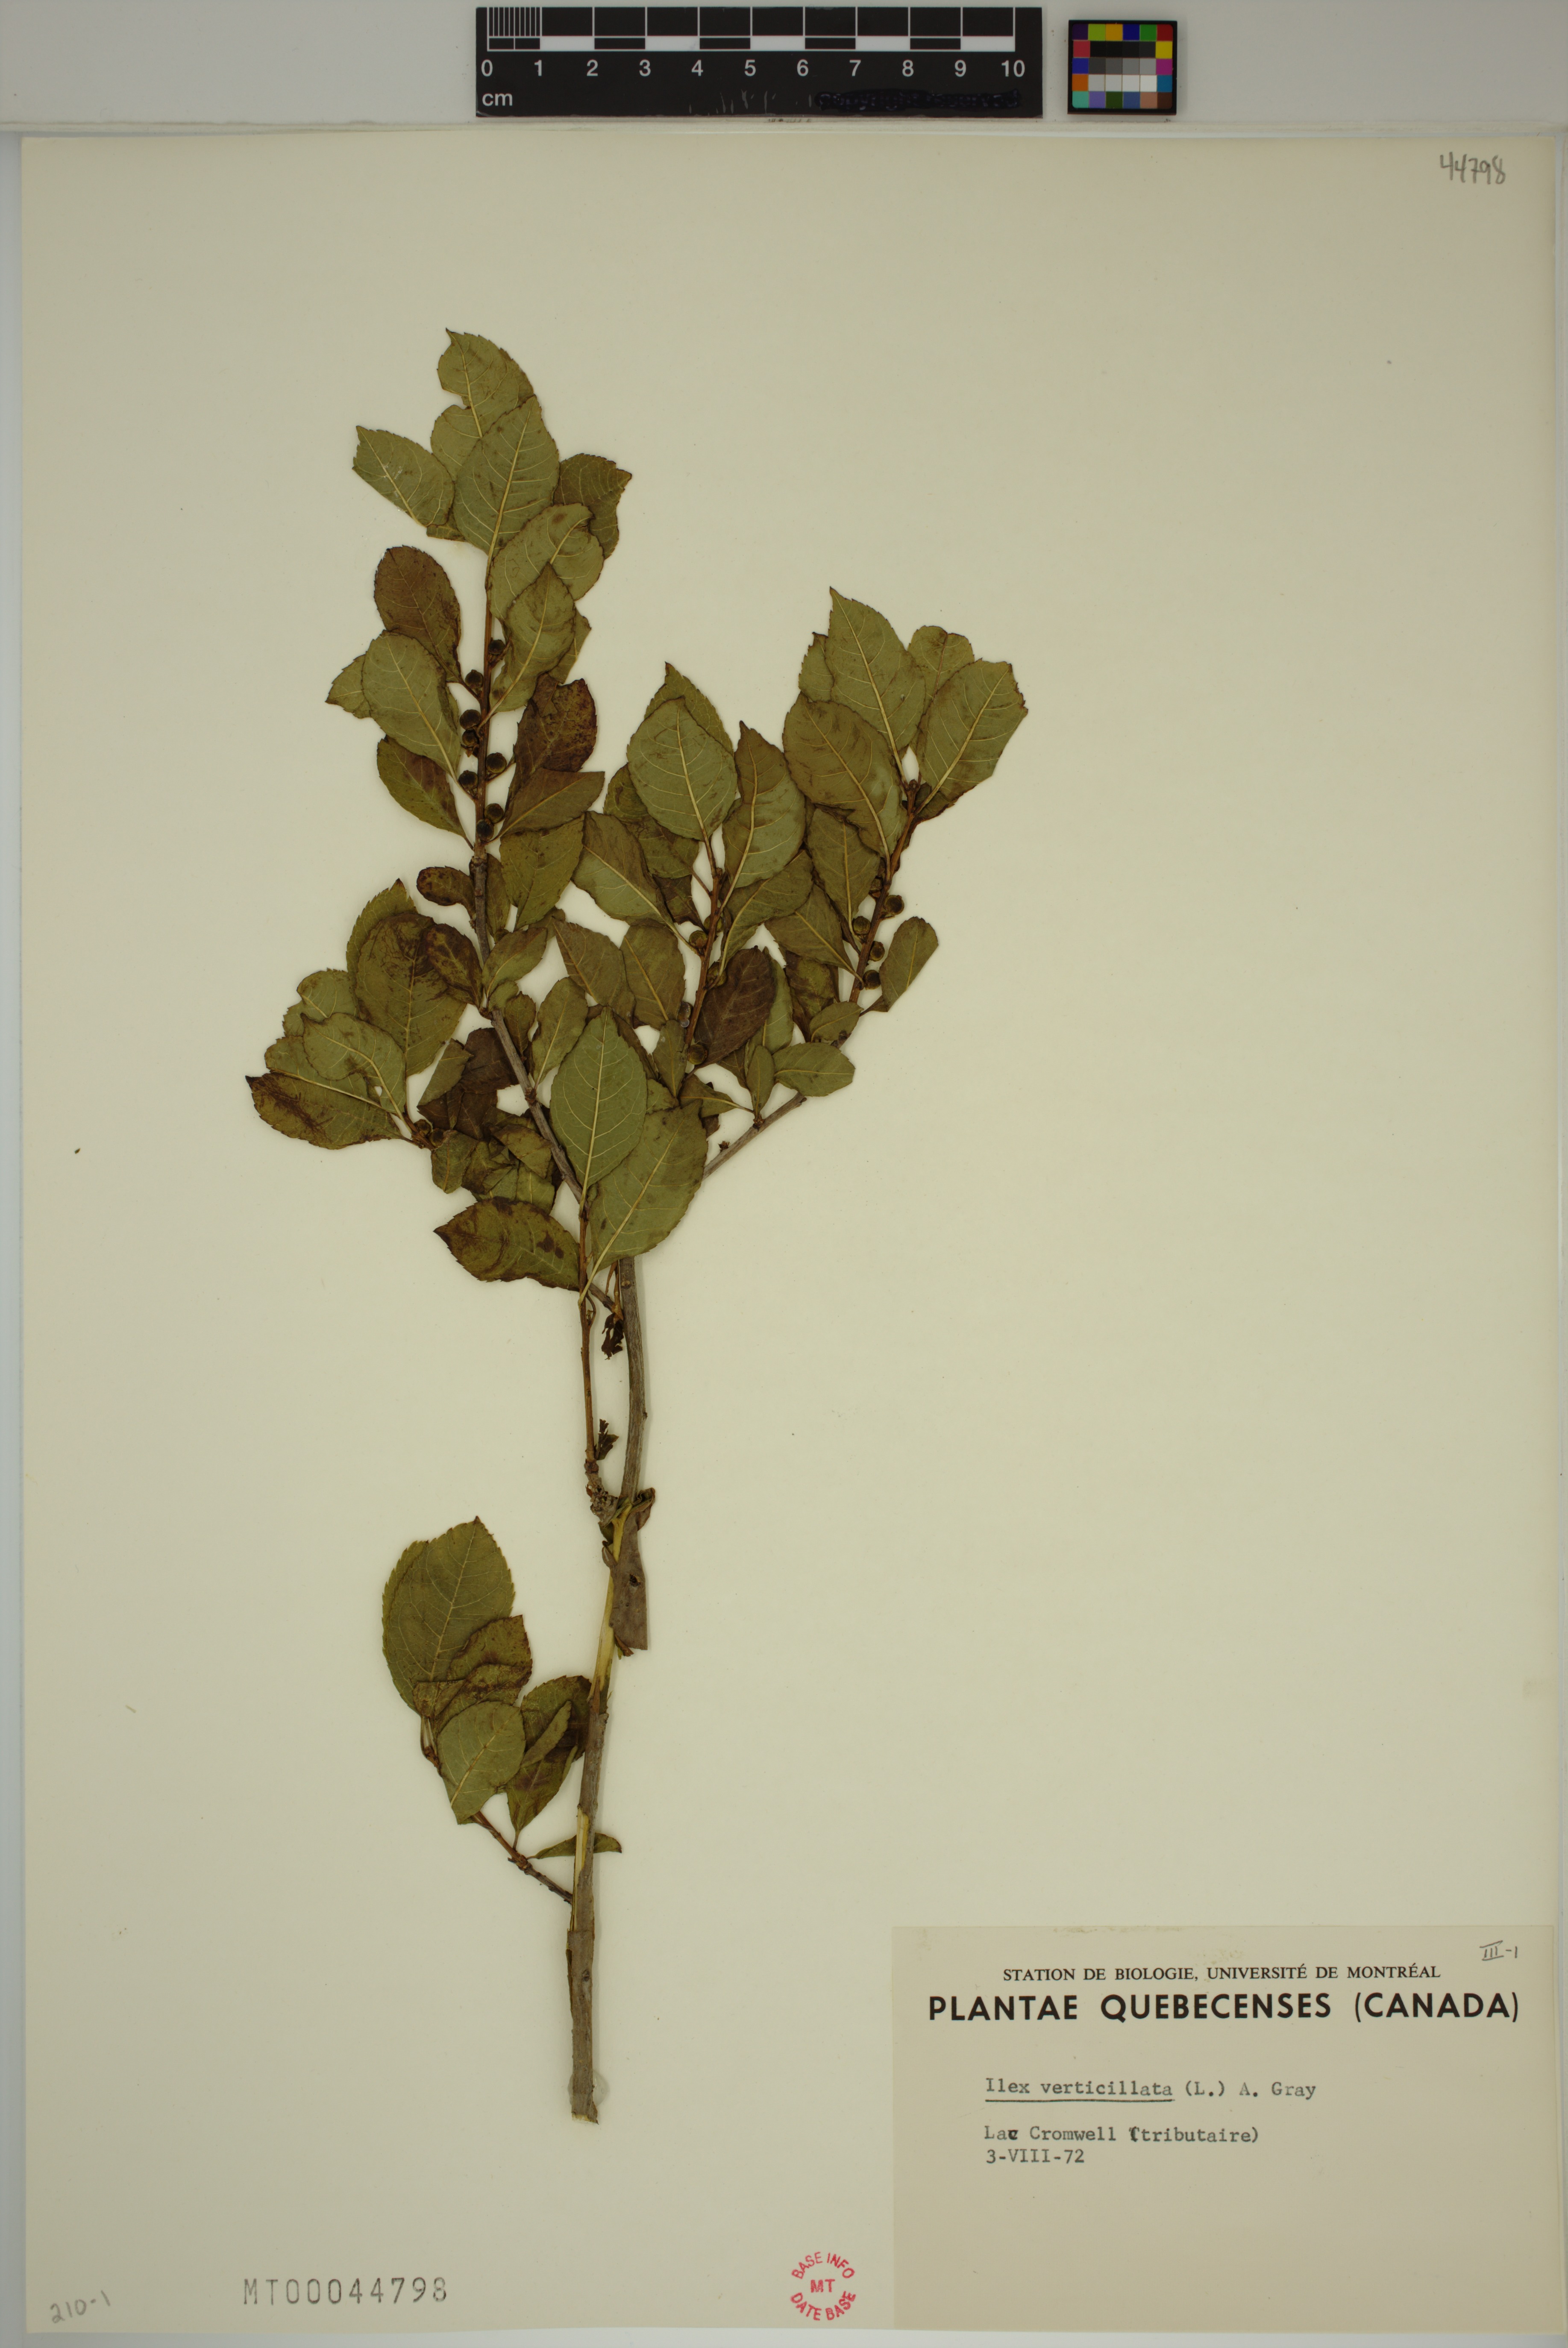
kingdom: Plantae
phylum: Tracheophyta
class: Magnoliopsida
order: Aquifoliales
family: Aquifoliaceae
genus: Ilex
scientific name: Ilex verticillata
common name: Virginia winterberry
